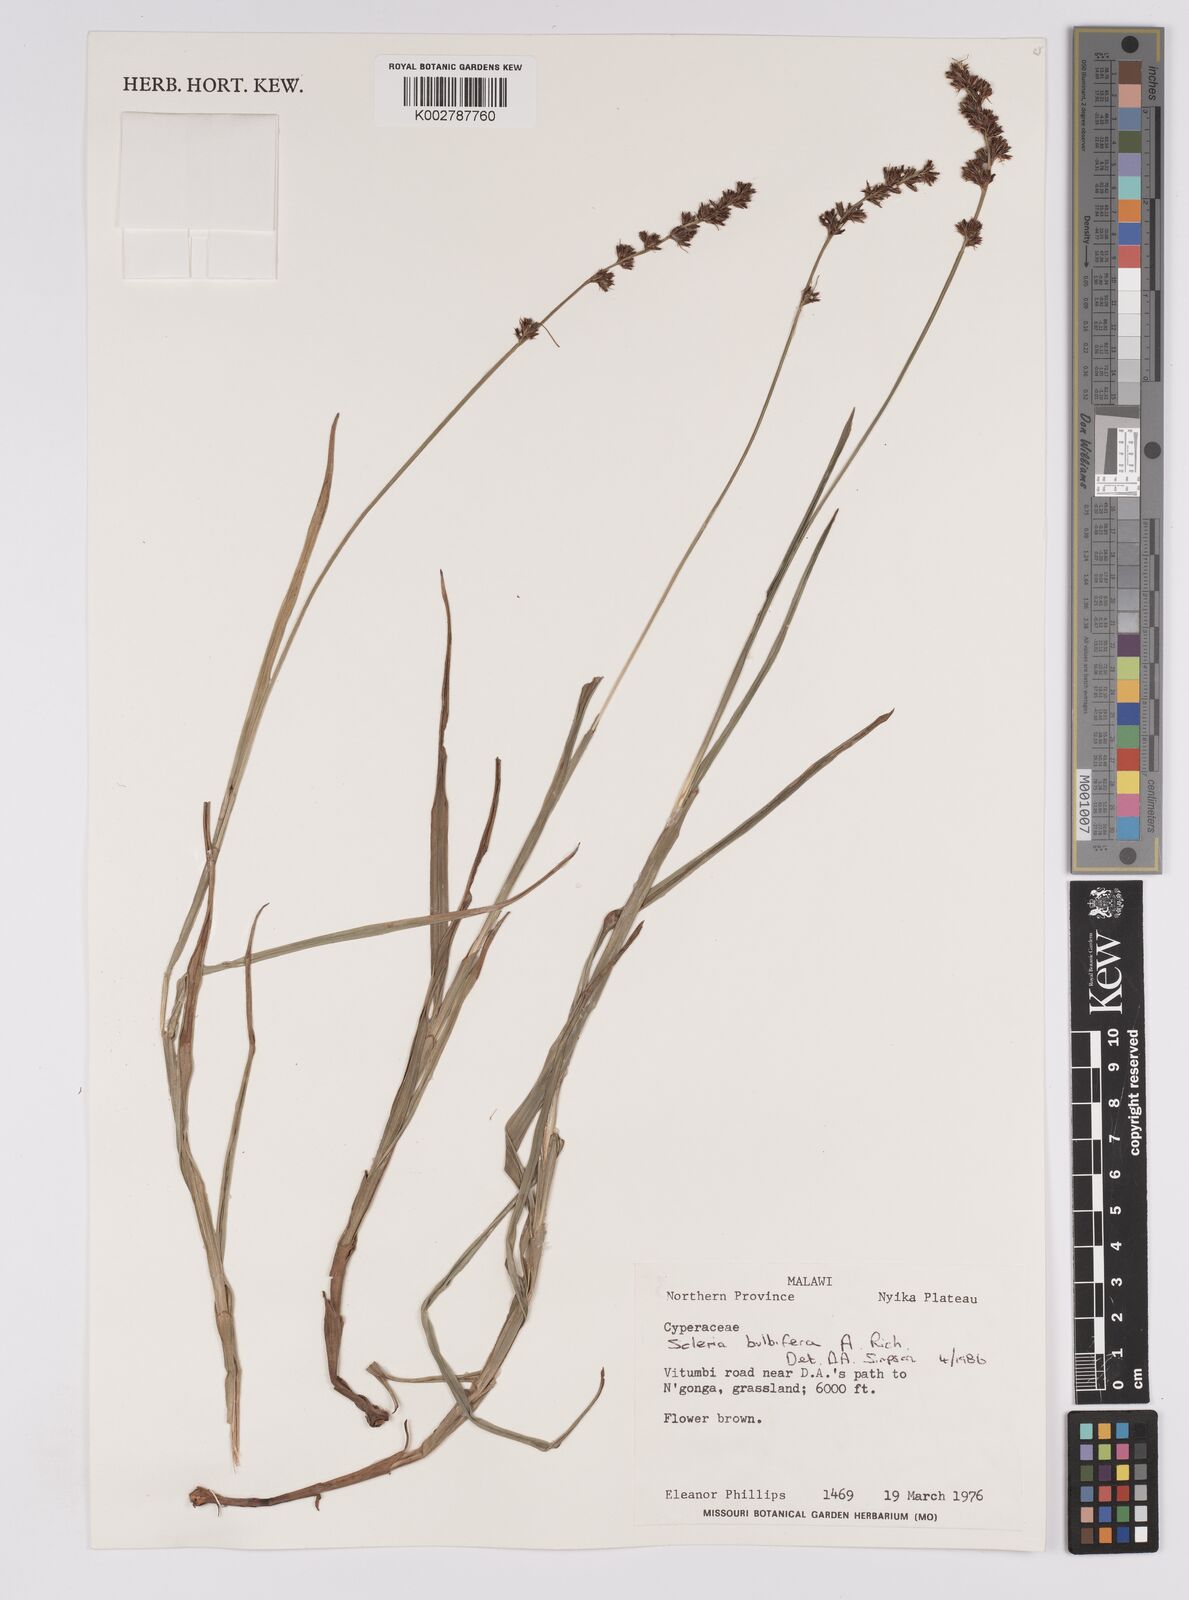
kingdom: Plantae
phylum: Tracheophyta
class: Liliopsida
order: Poales
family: Cyperaceae
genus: Scleria
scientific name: Scleria bulbifera
